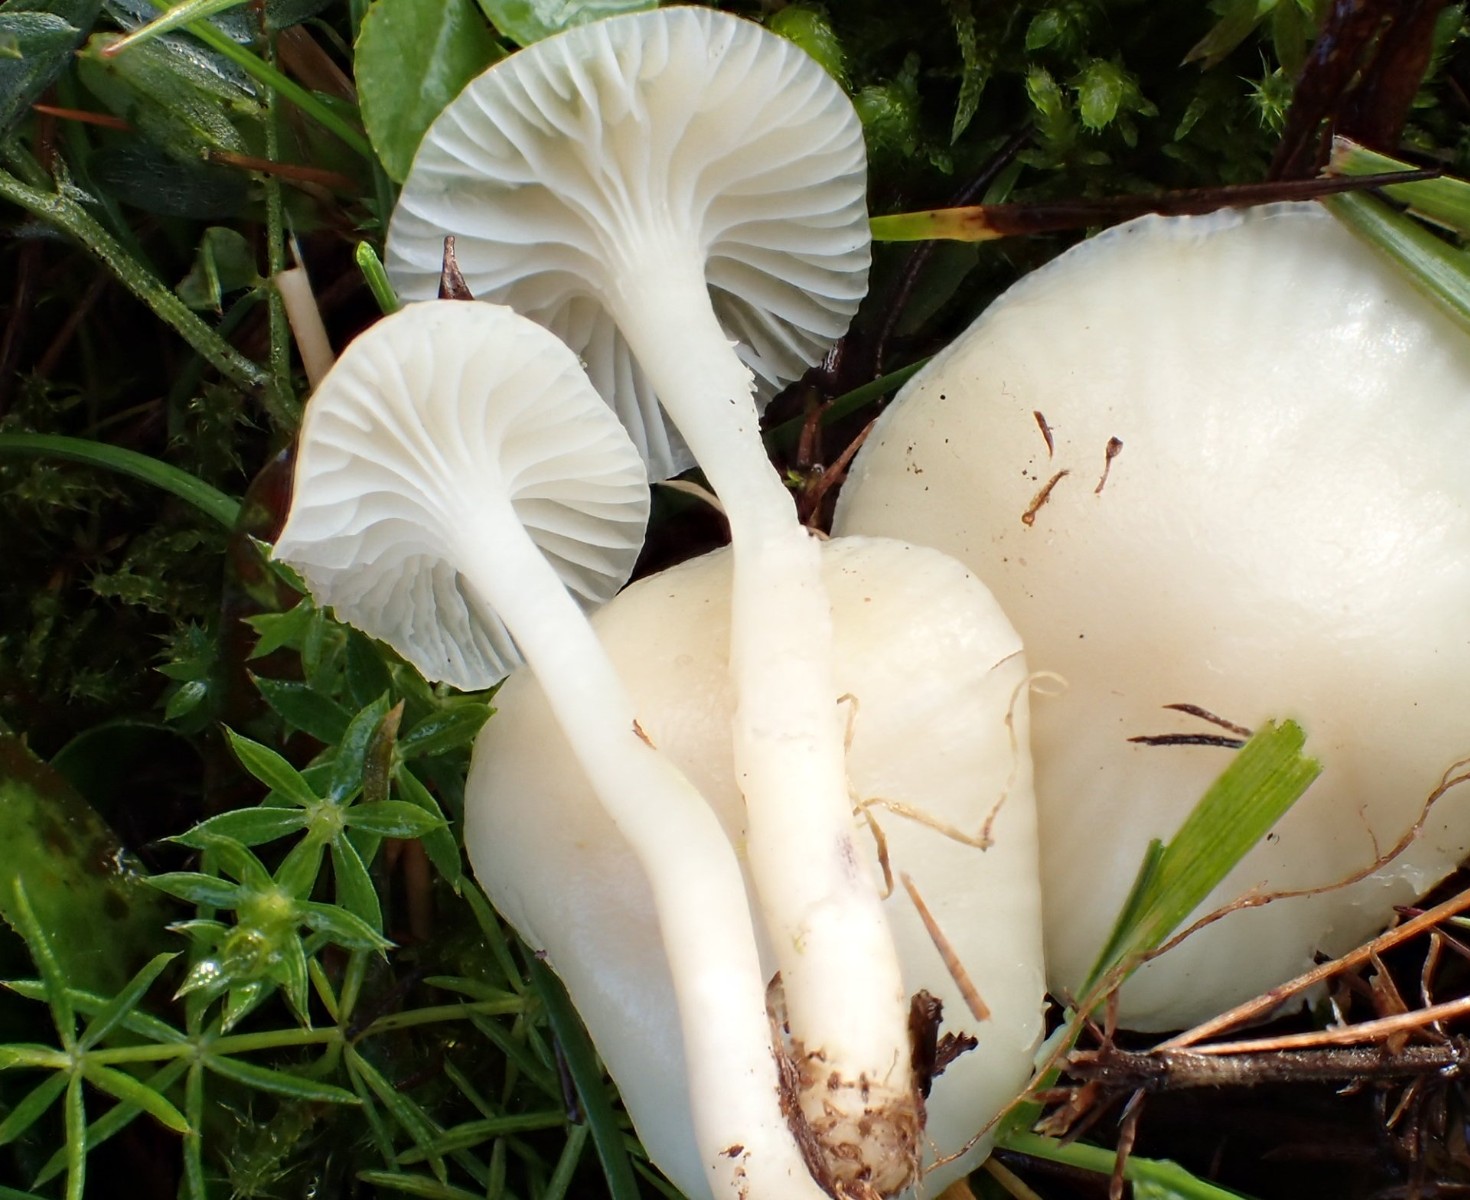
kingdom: Fungi
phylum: Basidiomycota
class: Agaricomycetes
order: Agaricales
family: Hygrophoraceae
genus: Cuphophyllus
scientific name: Cuphophyllus virgineus
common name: snehvid vokshat
